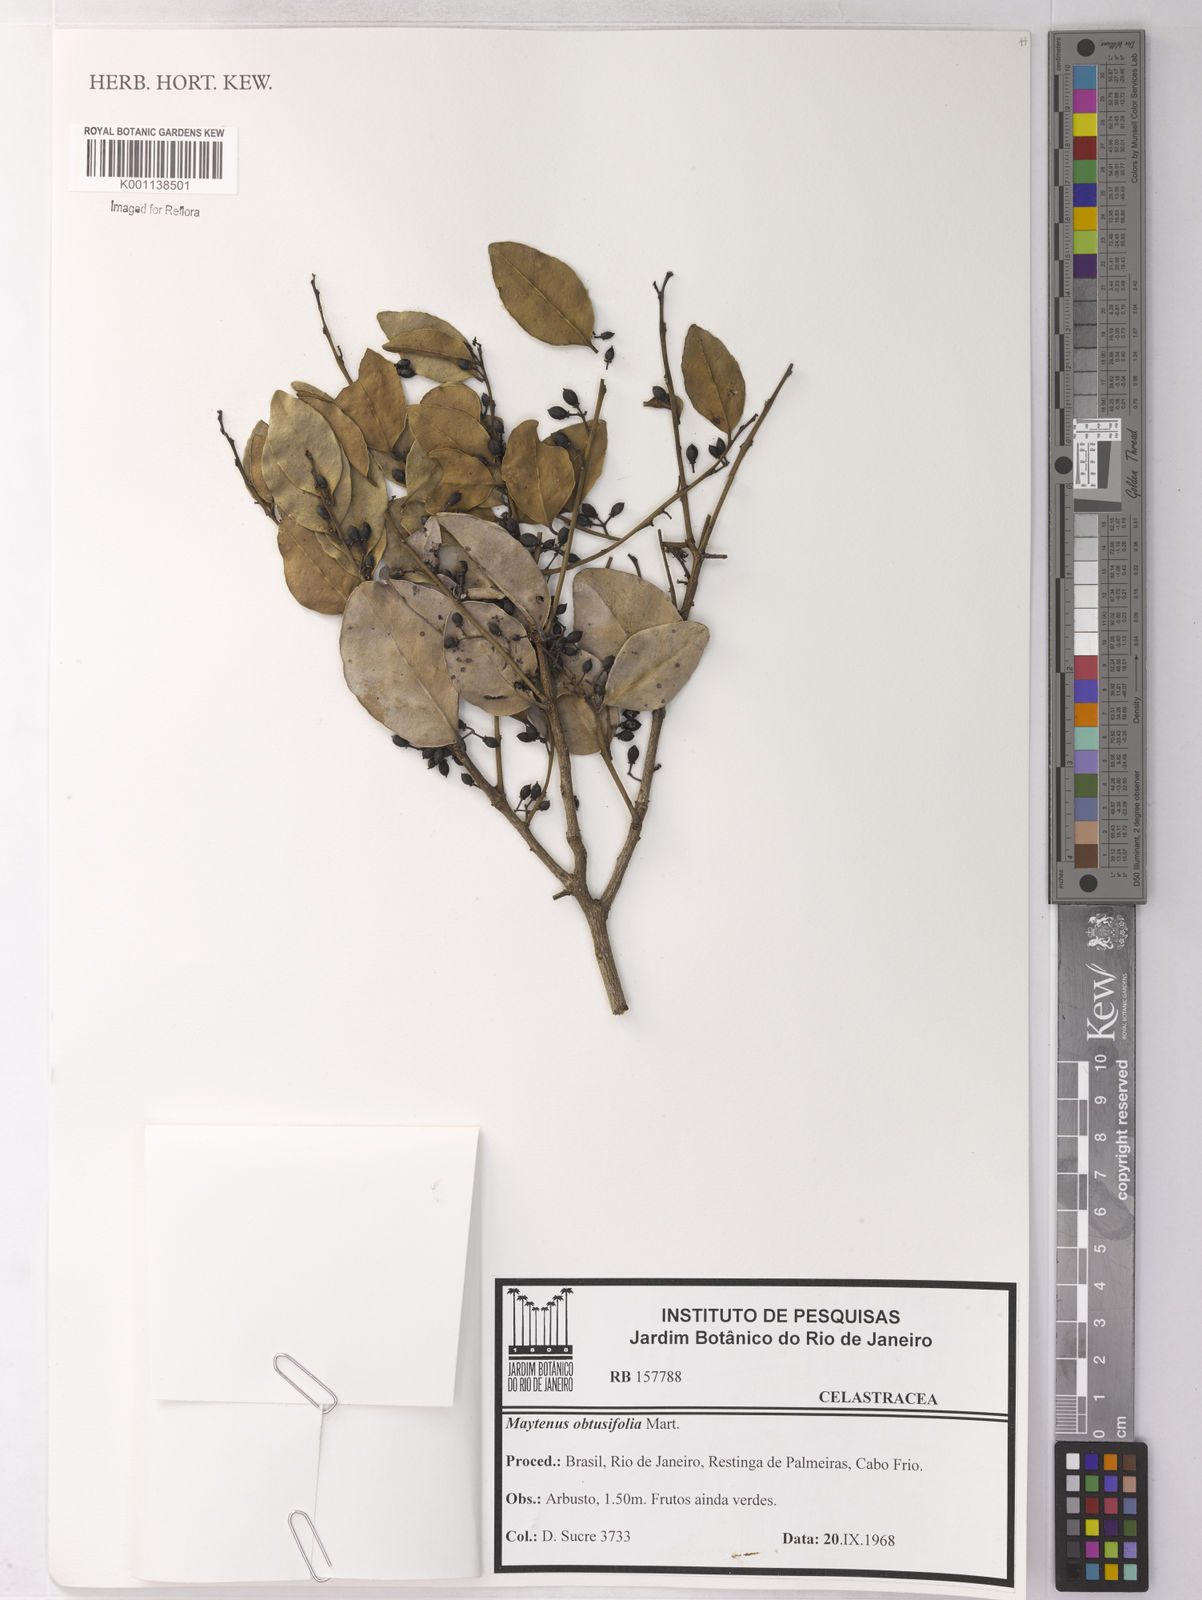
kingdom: Plantae
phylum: Tracheophyta
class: Magnoliopsida
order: Celastrales
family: Celastraceae
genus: Monteverdia
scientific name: Monteverdia obtusifolia
